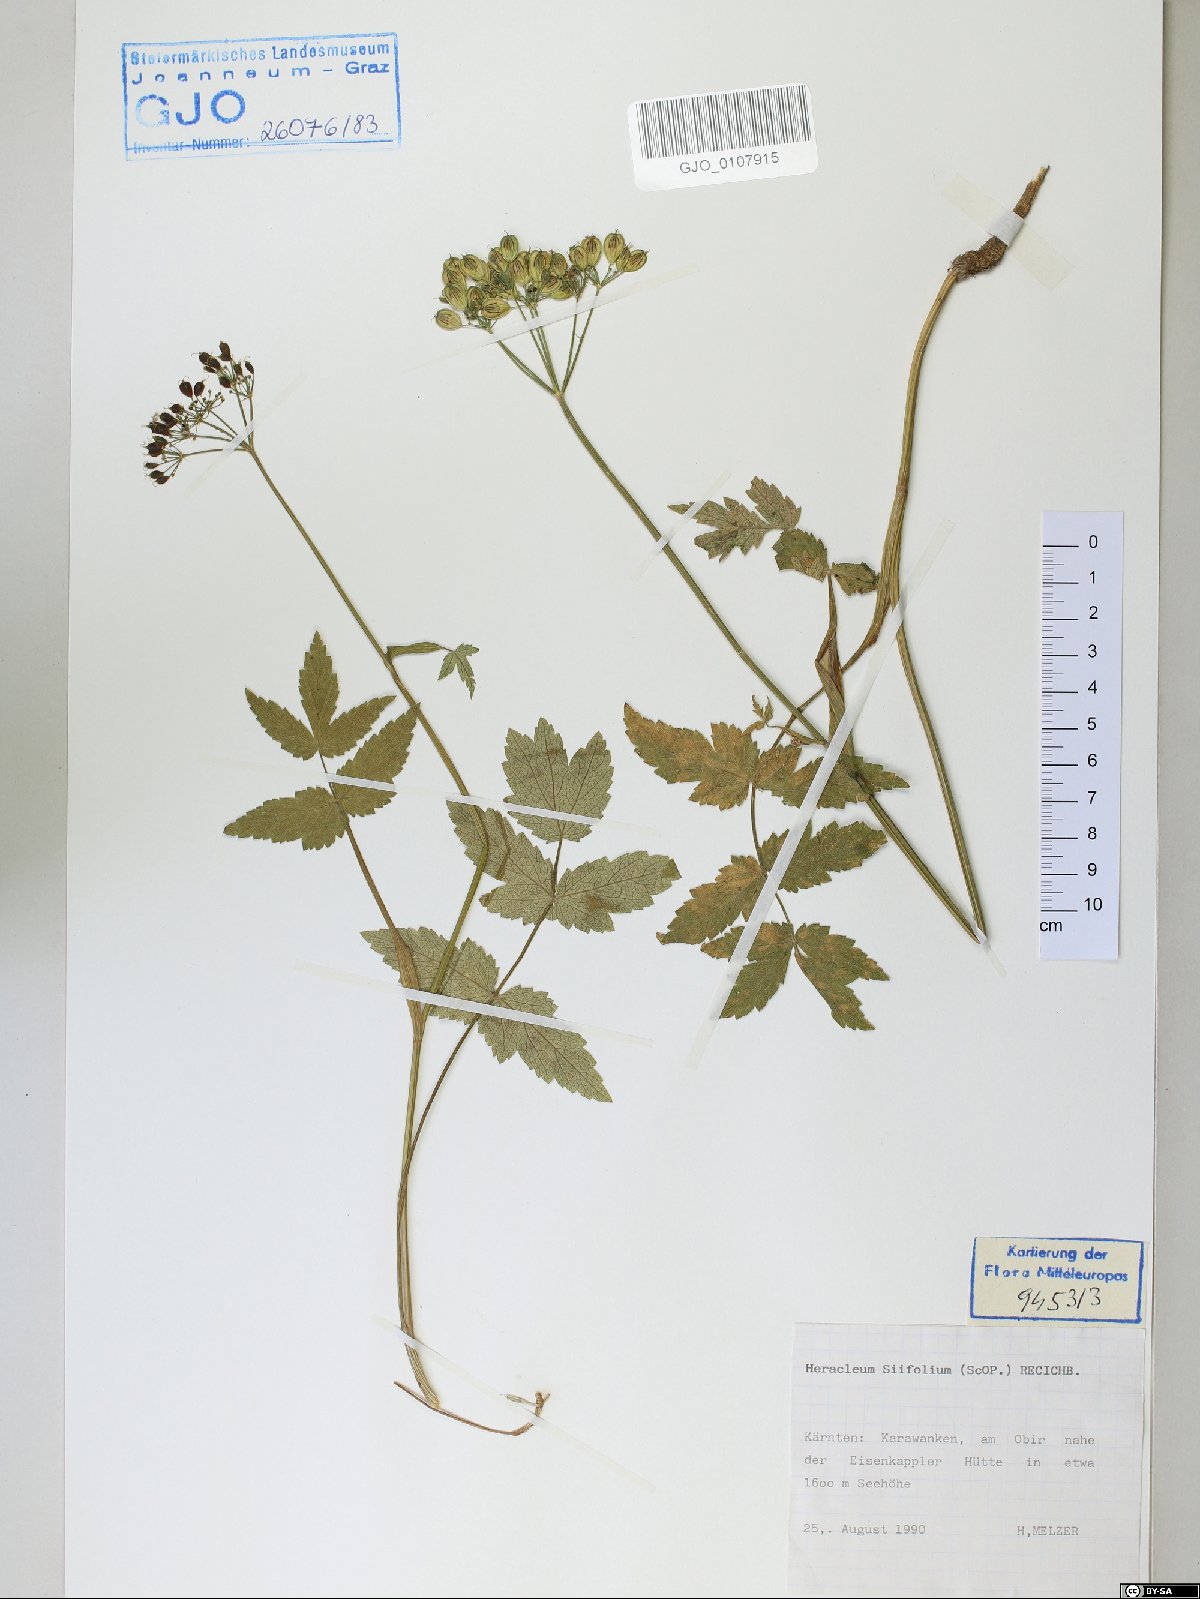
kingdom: Plantae
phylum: Tracheophyta
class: Magnoliopsida
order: Apiales
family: Apiaceae
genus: Heracleum
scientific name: Heracleum austriacum
